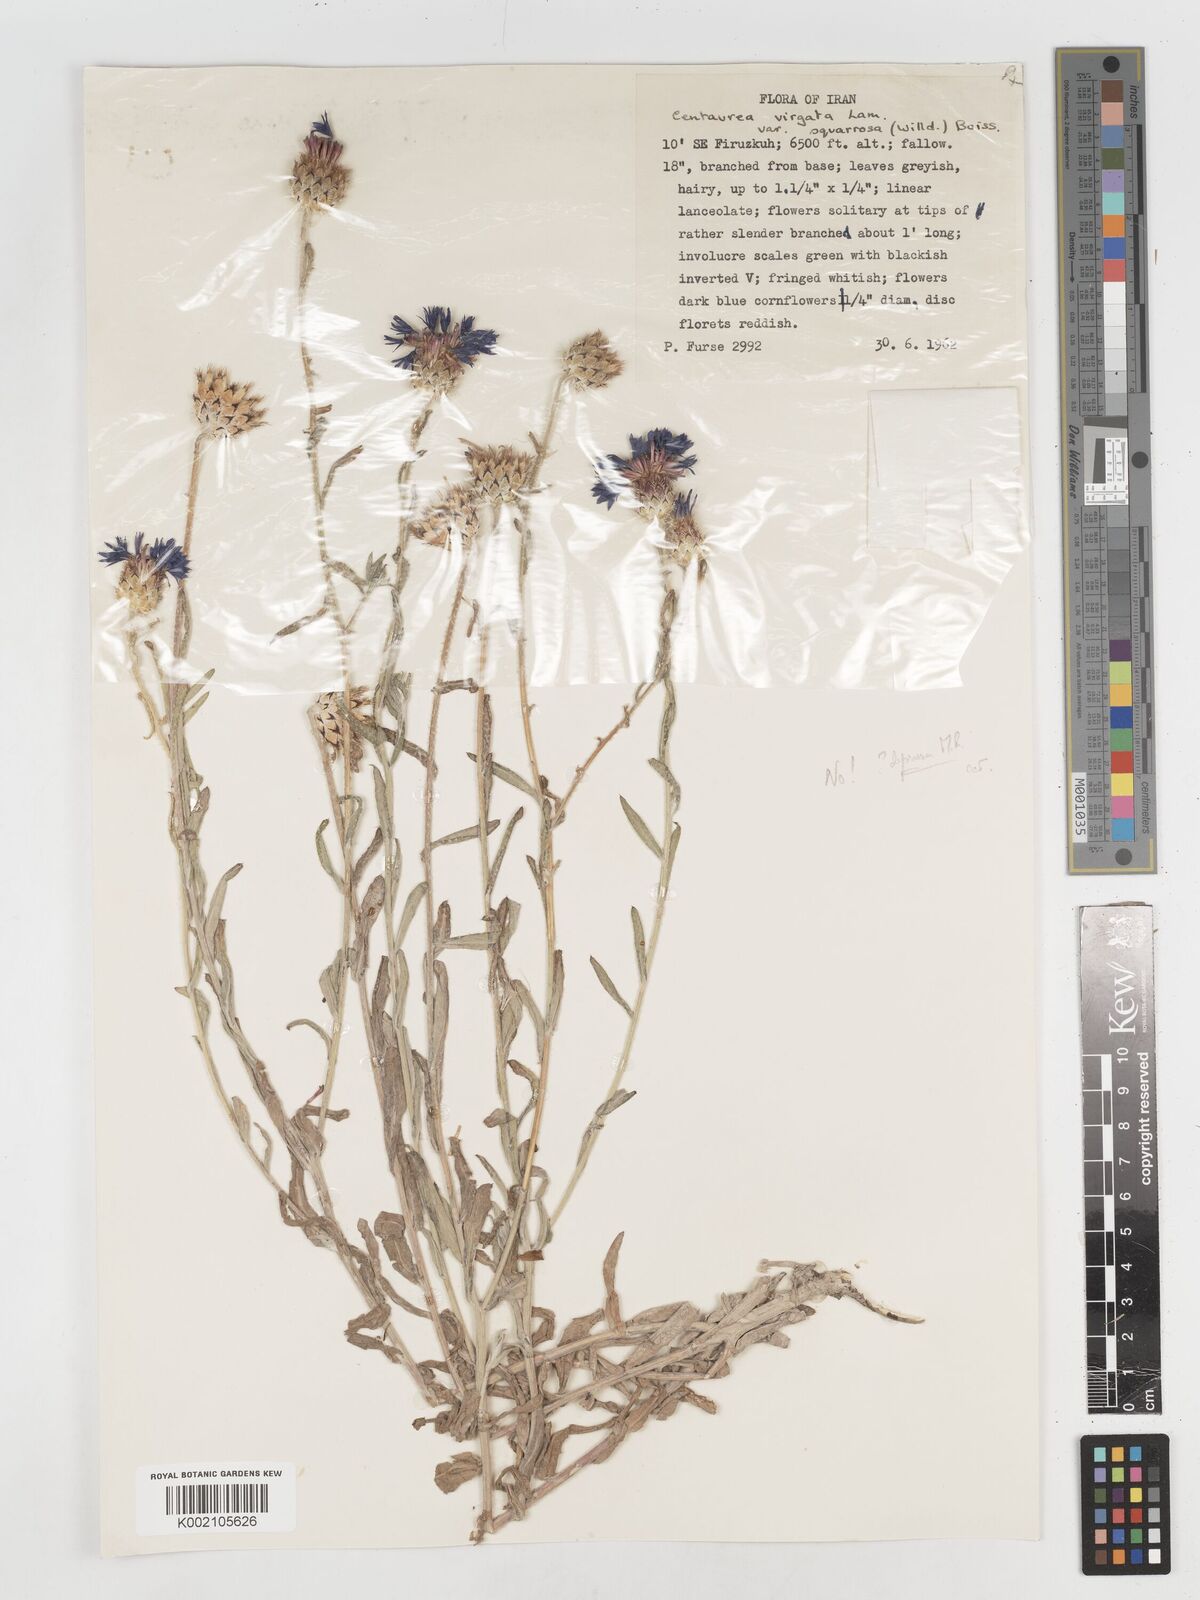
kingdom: Plantae
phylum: Tracheophyta
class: Magnoliopsida
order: Asterales
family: Asteraceae
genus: Centaurea
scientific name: Centaurea depressa
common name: Iranian knapweed
